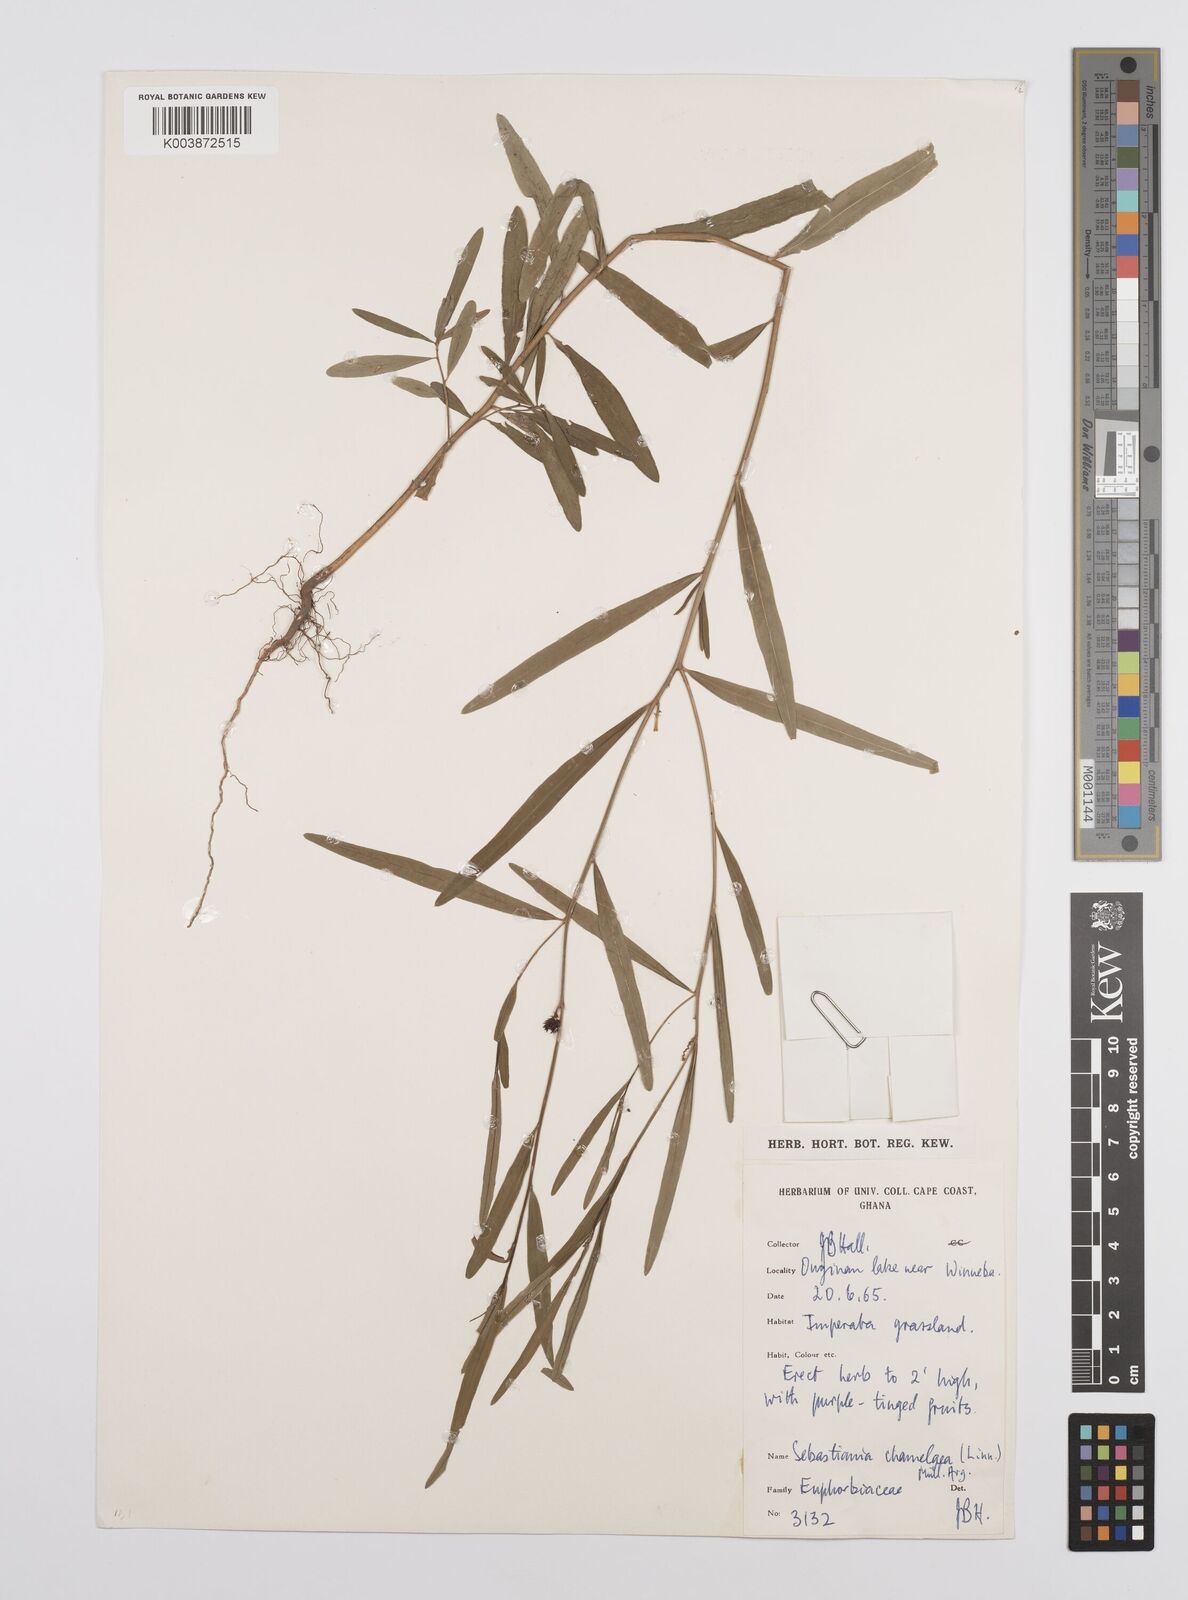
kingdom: Plantae
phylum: Tracheophyta
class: Magnoliopsida
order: Malpighiales
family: Euphorbiaceae
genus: Microstachys
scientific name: Microstachys chamaelea
